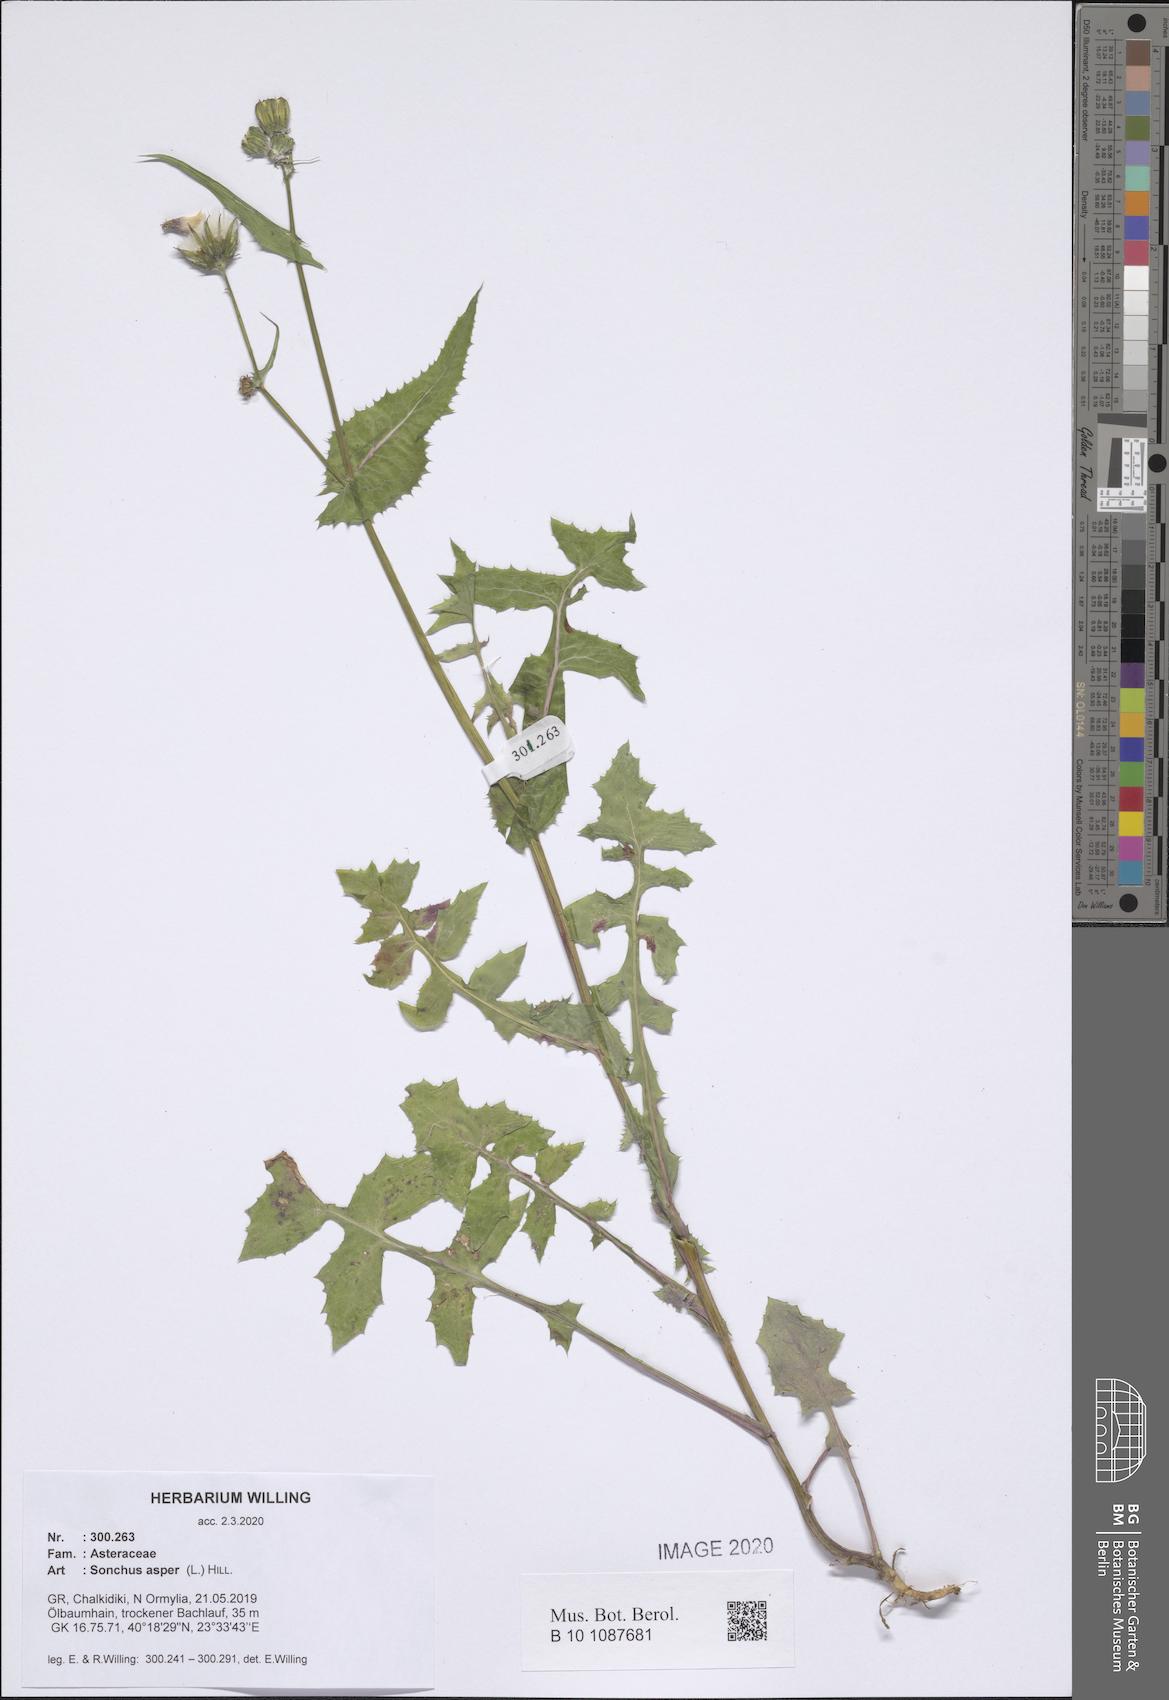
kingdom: Plantae
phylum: Tracheophyta
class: Magnoliopsida
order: Asterales
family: Asteraceae
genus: Sonchus
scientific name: Sonchus asper
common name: Prickly sow-thistle
